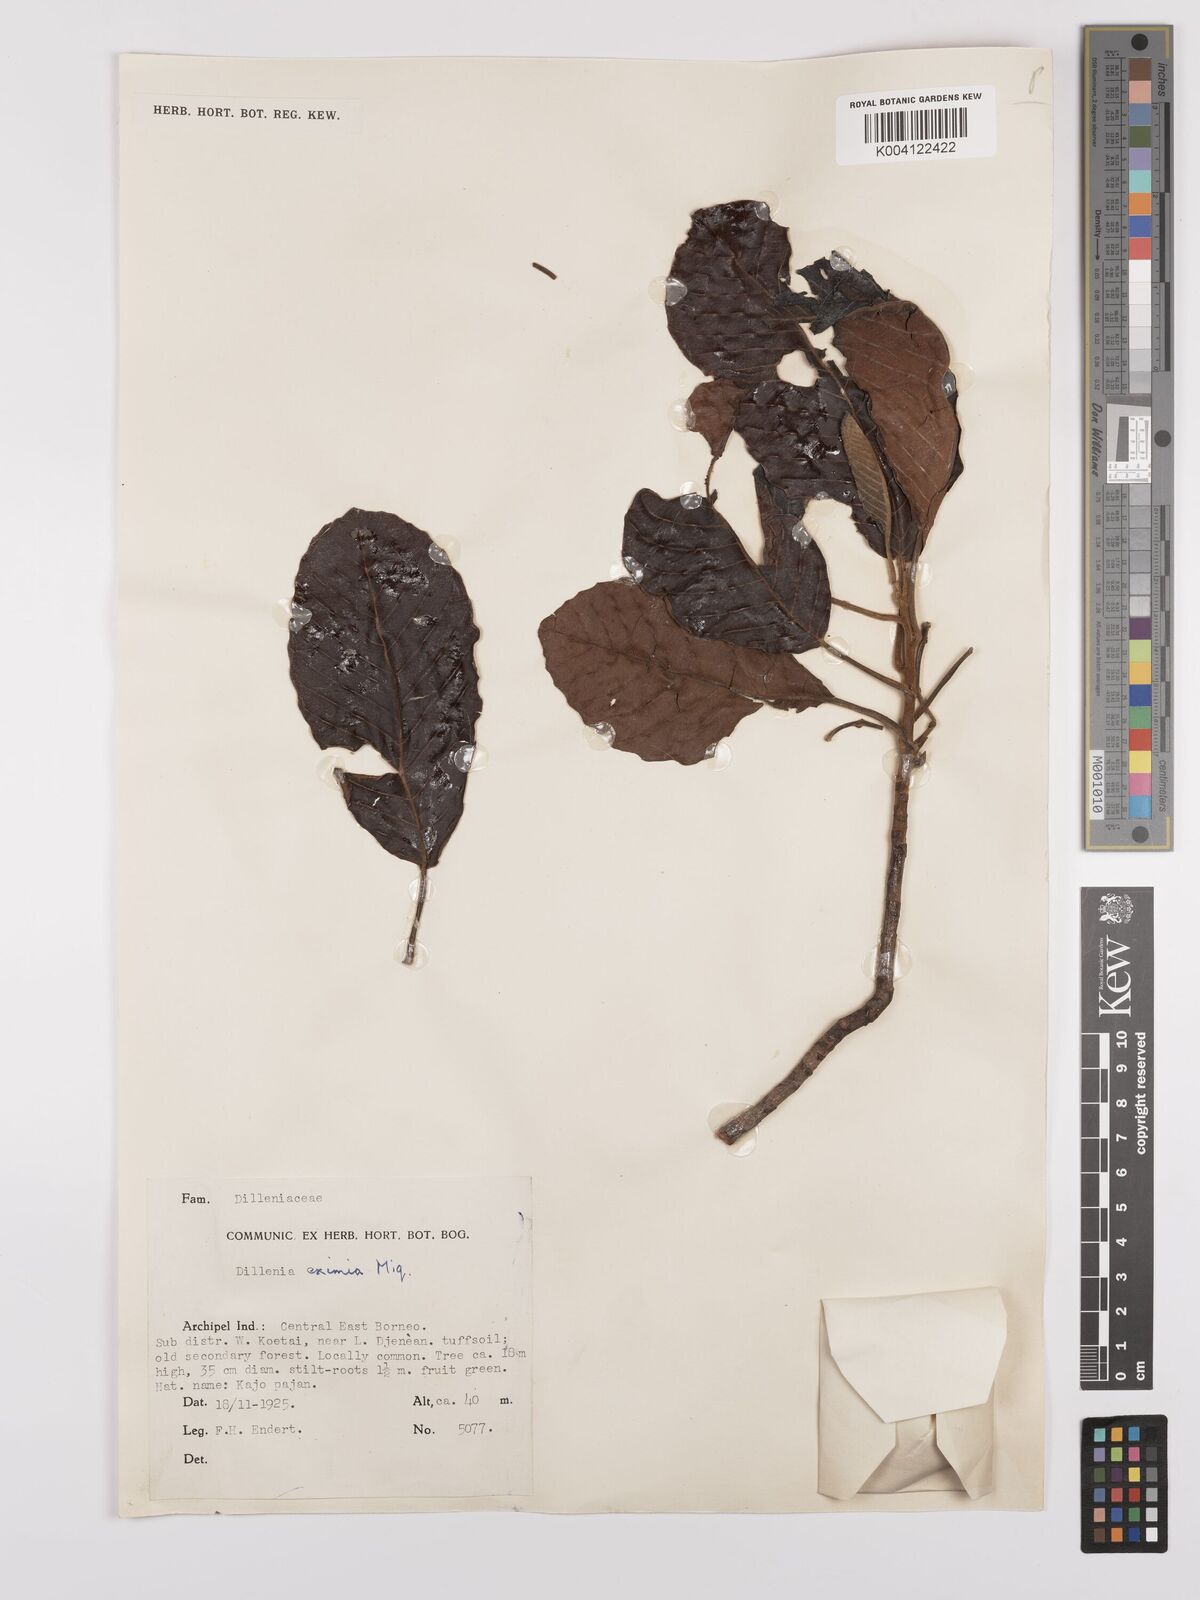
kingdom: Plantae
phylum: Tracheophyta
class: Magnoliopsida
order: Dilleniales
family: Dilleniaceae
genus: Dillenia
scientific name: Dillenia grandifolia
